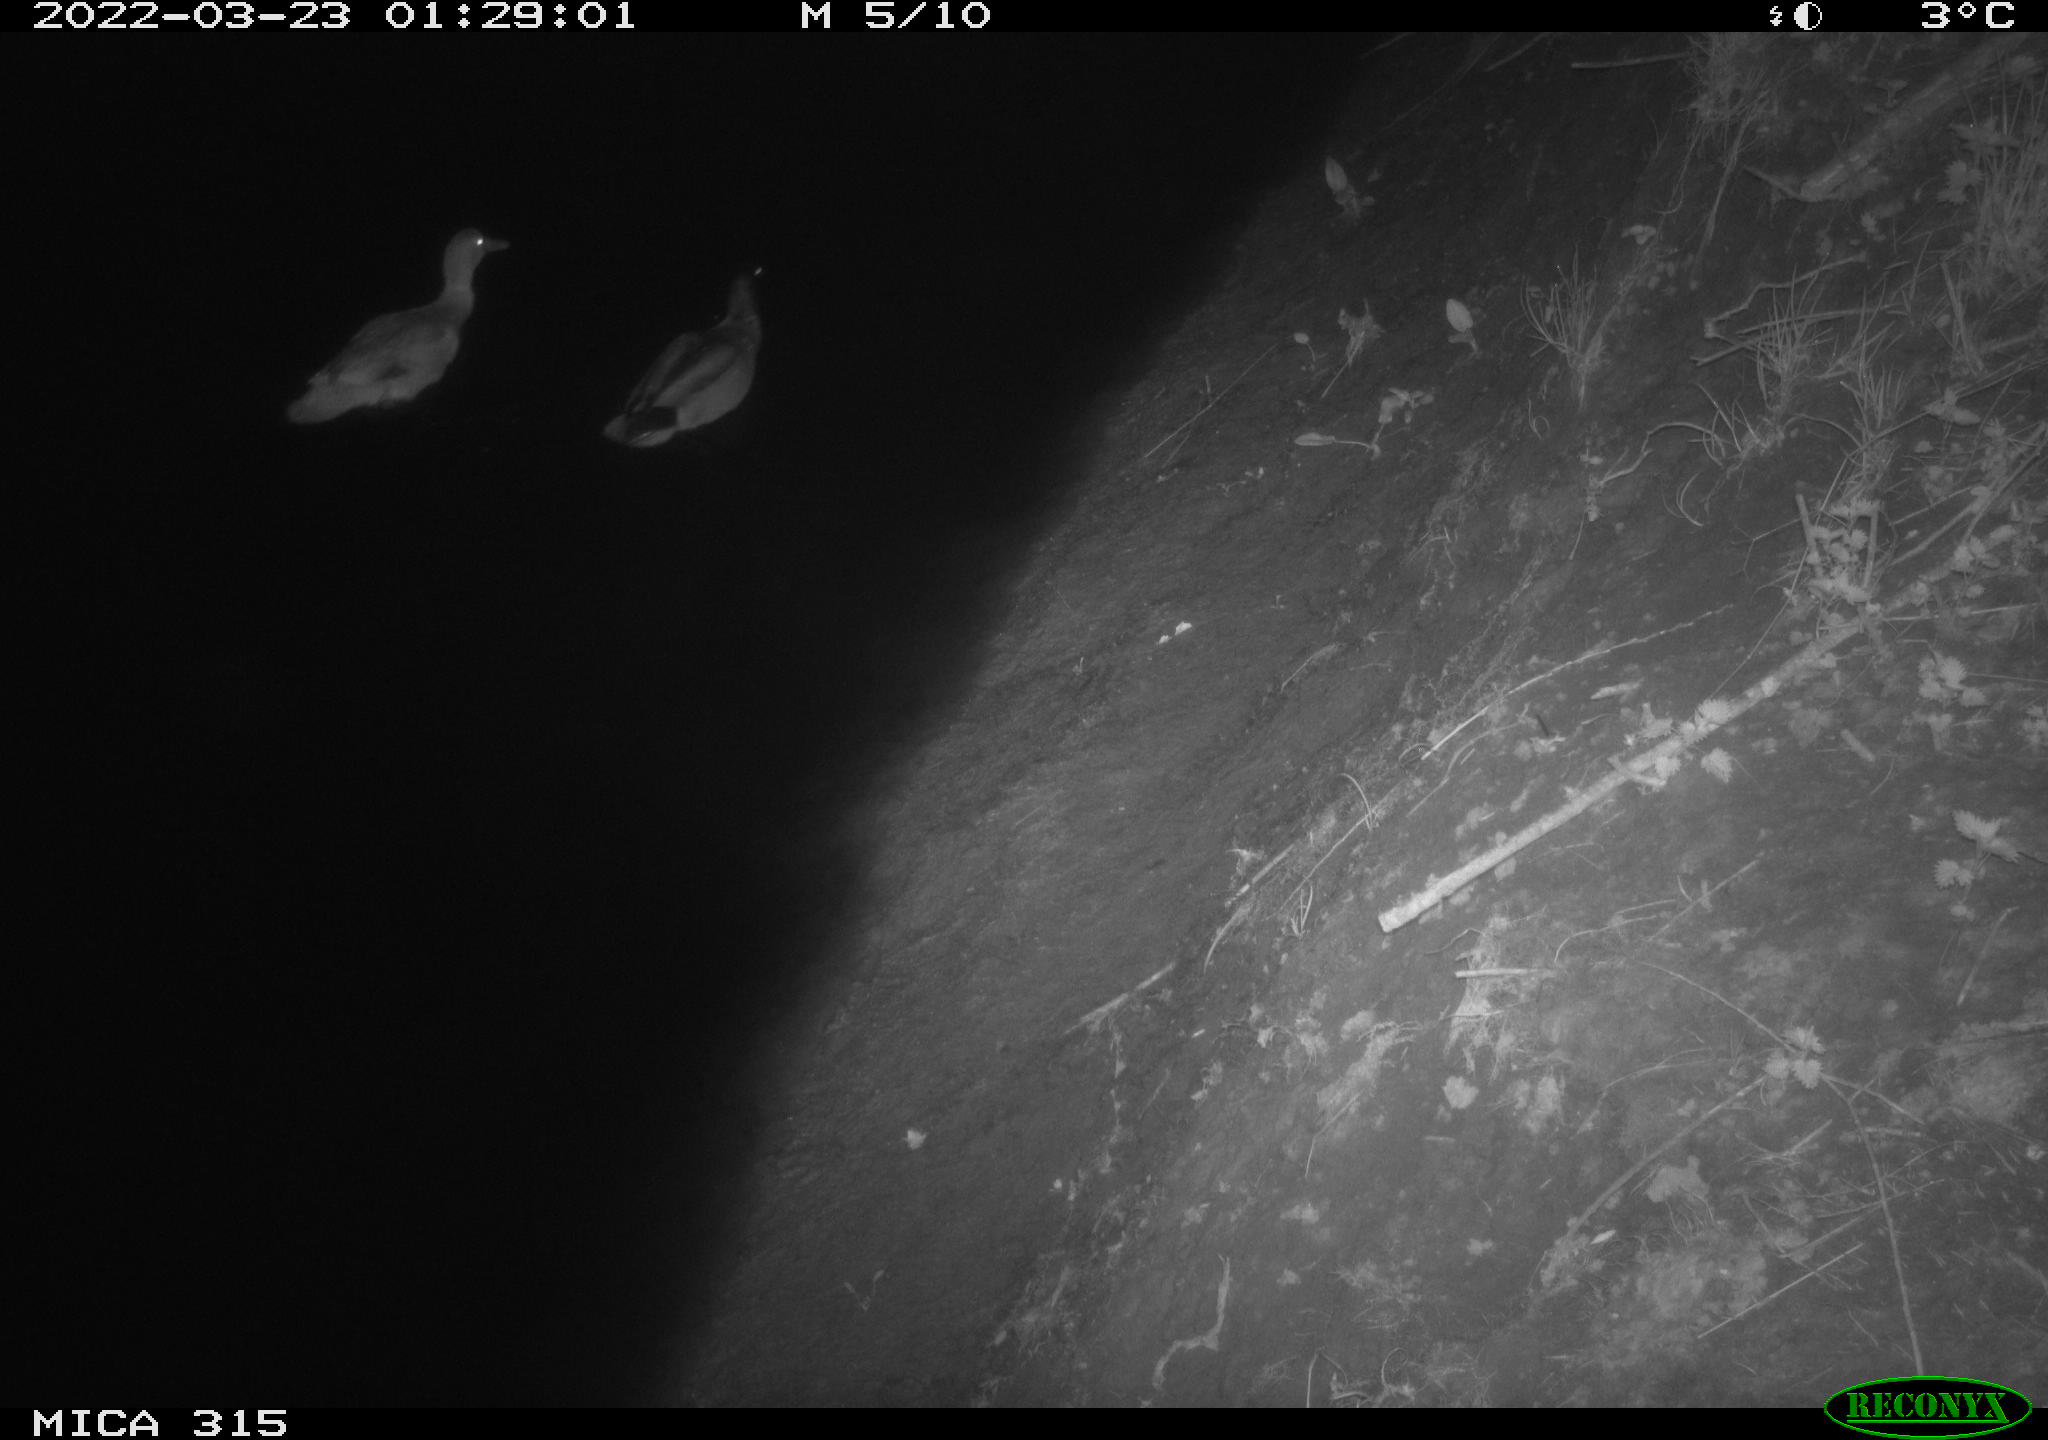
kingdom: Animalia
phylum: Chordata
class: Aves
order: Anseriformes
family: Anatidae
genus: Anas
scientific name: Anas platyrhynchos
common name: Mallard
